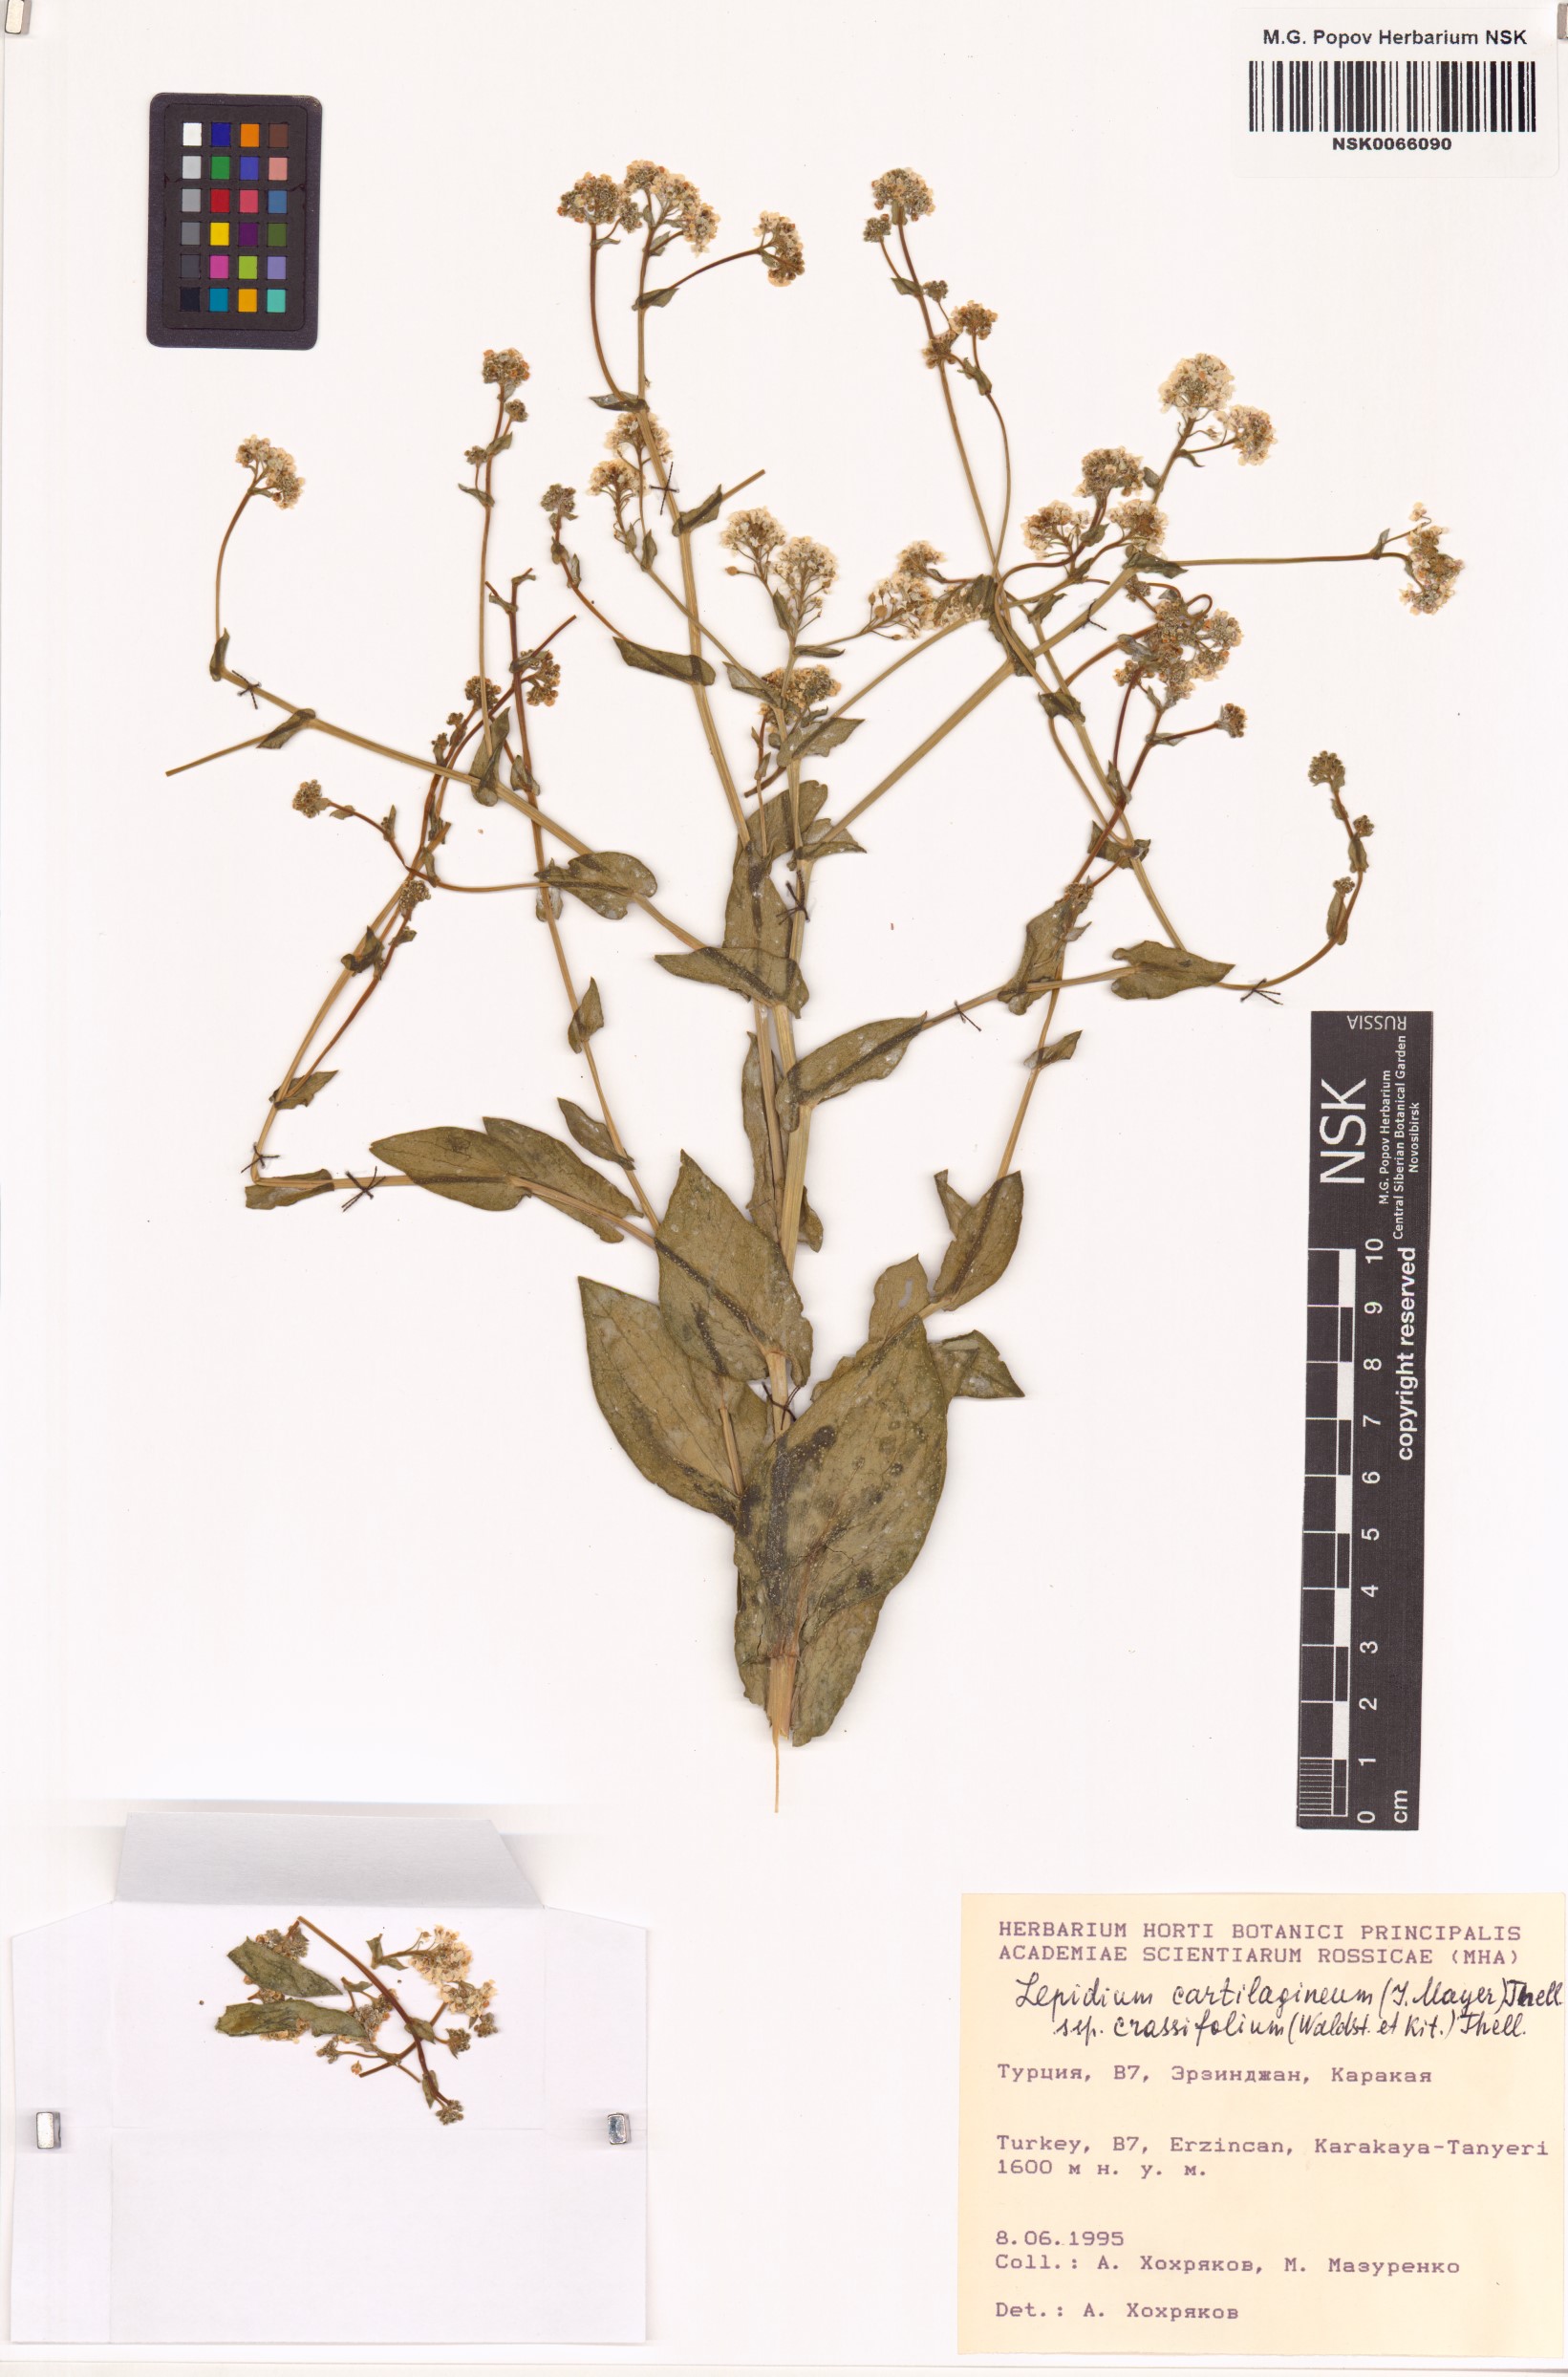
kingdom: Plantae
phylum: Tracheophyta
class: Magnoliopsida
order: Brassicales
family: Brassicaceae
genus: Lepidium
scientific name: Lepidium cartilagineum
